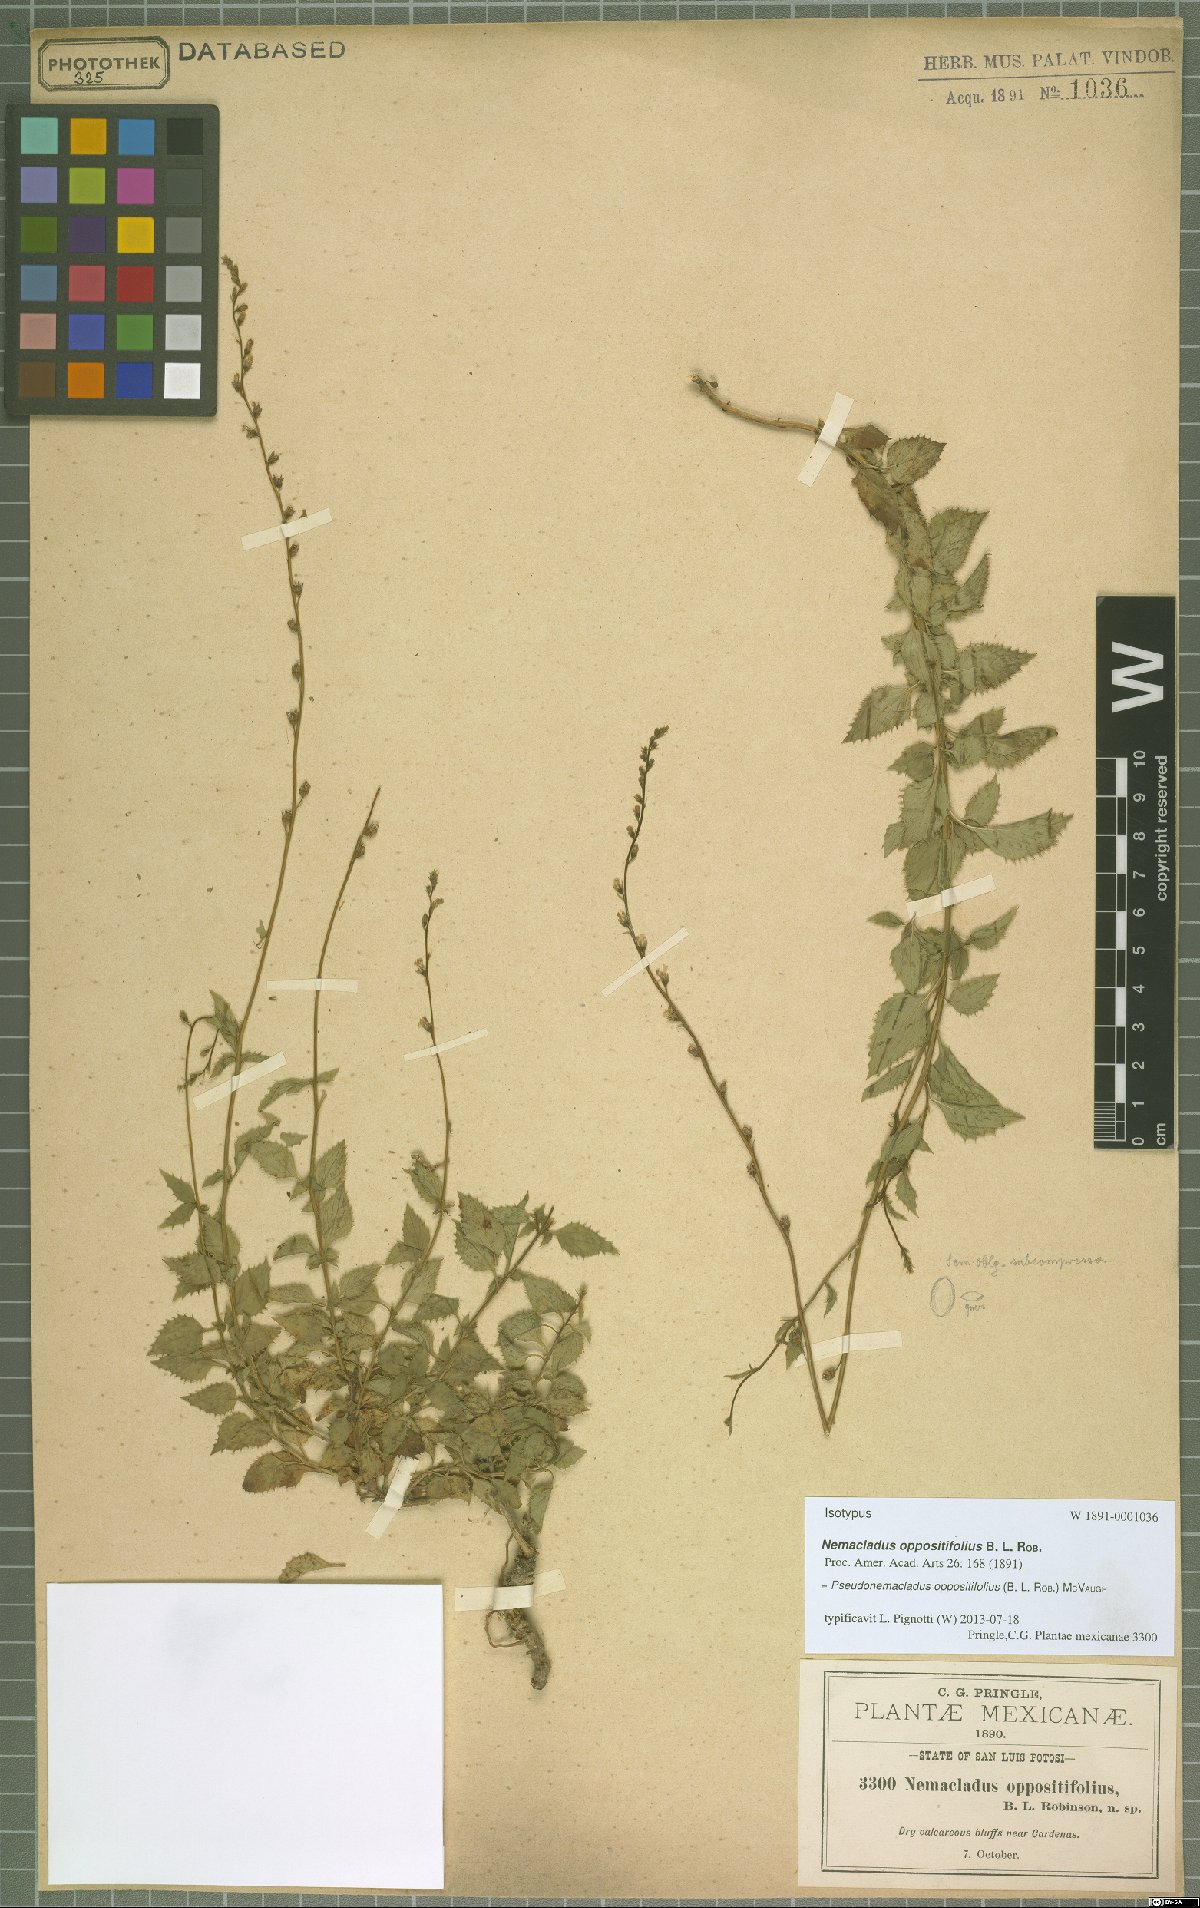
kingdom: Plantae
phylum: Tracheophyta
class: Magnoliopsida
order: Asterales
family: Campanulaceae
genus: Pseudonemacladus
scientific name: Pseudonemacladus oppositifolius
